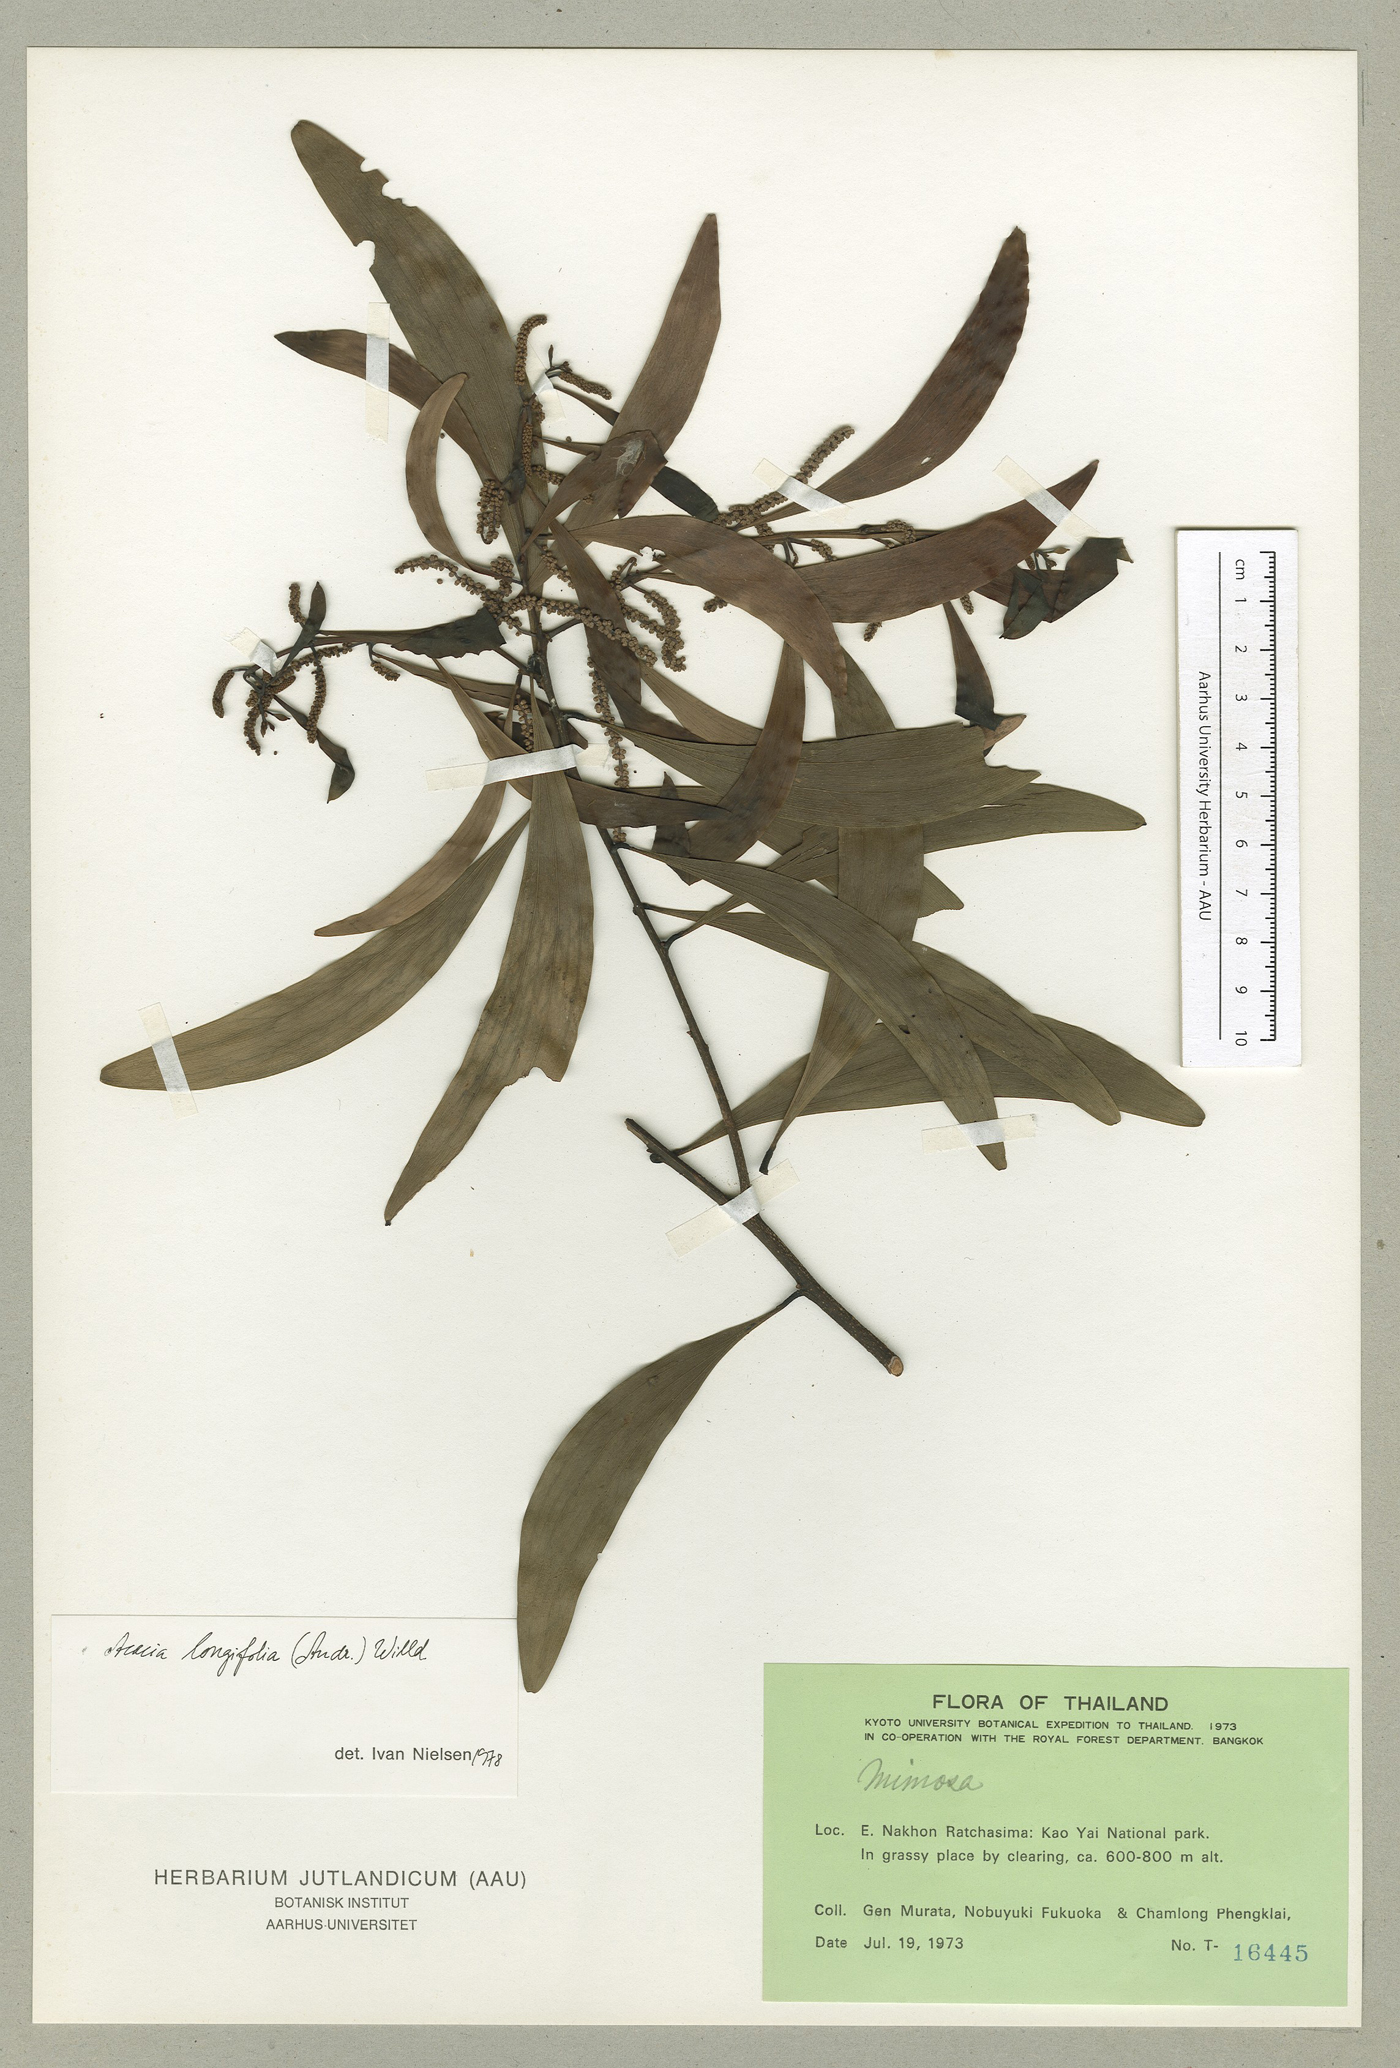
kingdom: Plantae
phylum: Tracheophyta
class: Magnoliopsida
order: Fabales
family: Fabaceae
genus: Acacia
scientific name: Acacia auriculiformis
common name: Earleaf acacia
